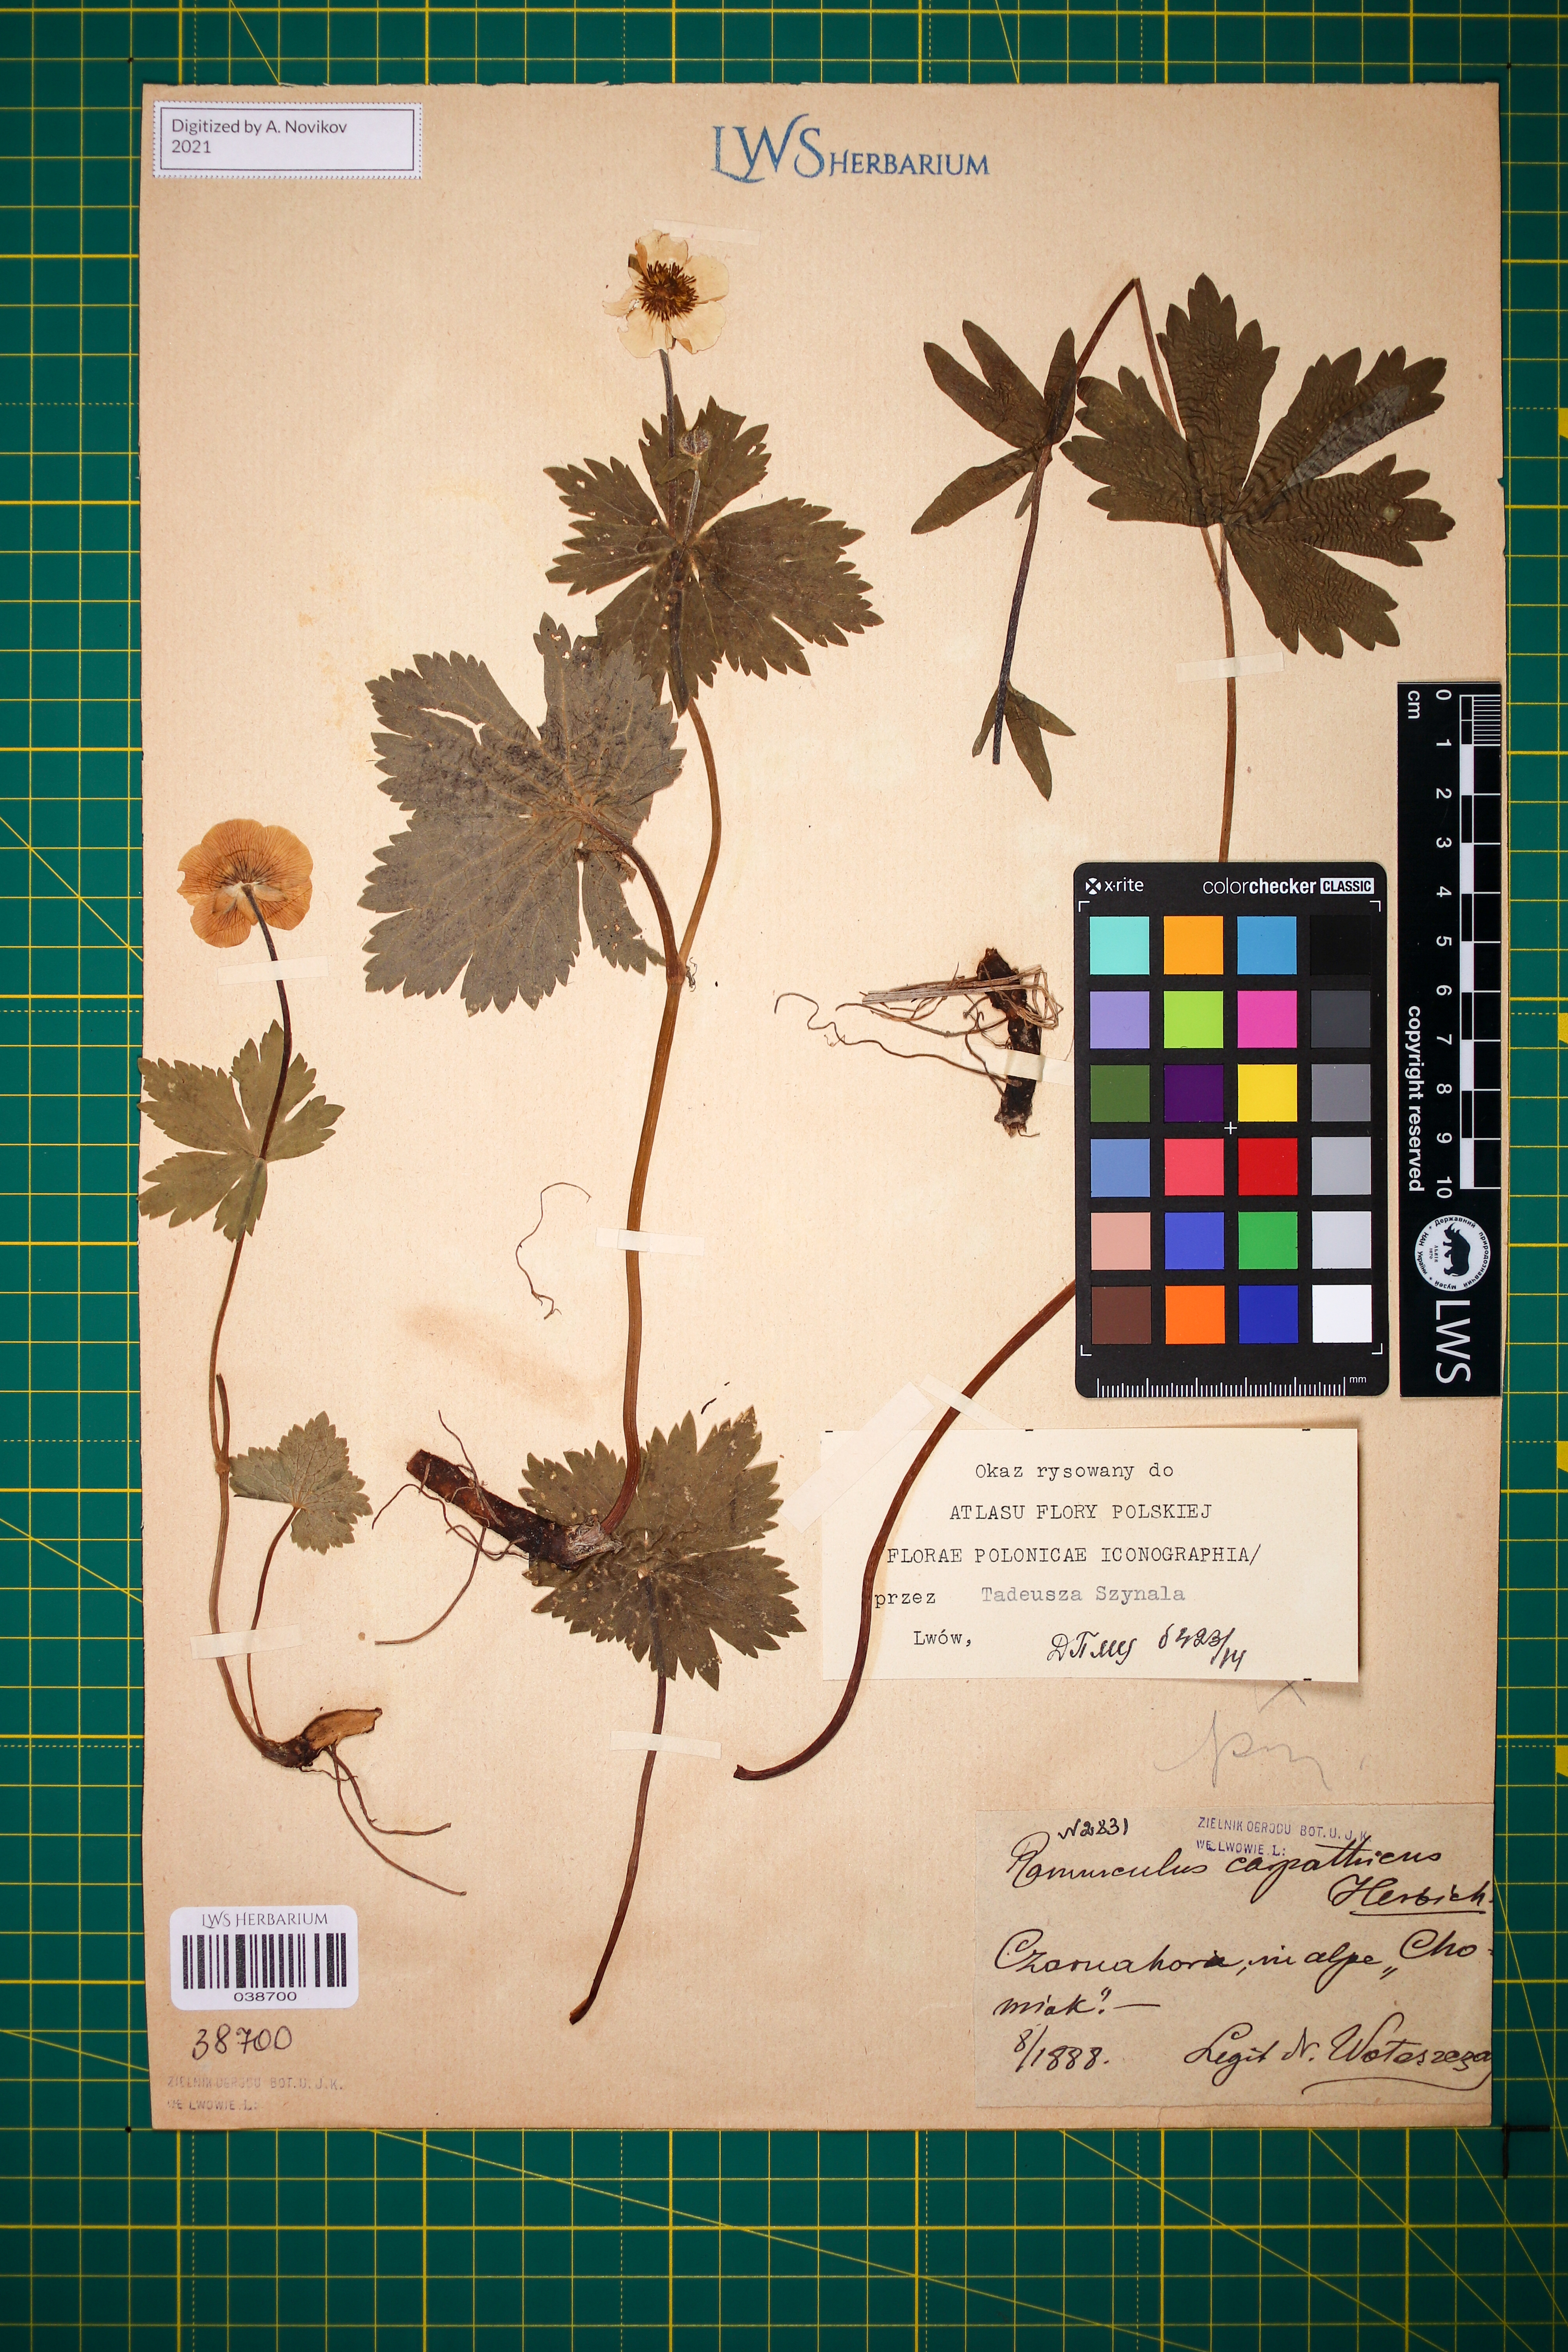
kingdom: Plantae
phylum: Tracheophyta
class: Magnoliopsida
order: Ranunculales
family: Ranunculaceae
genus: Ranunculus
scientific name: Ranunculus carpaticus
